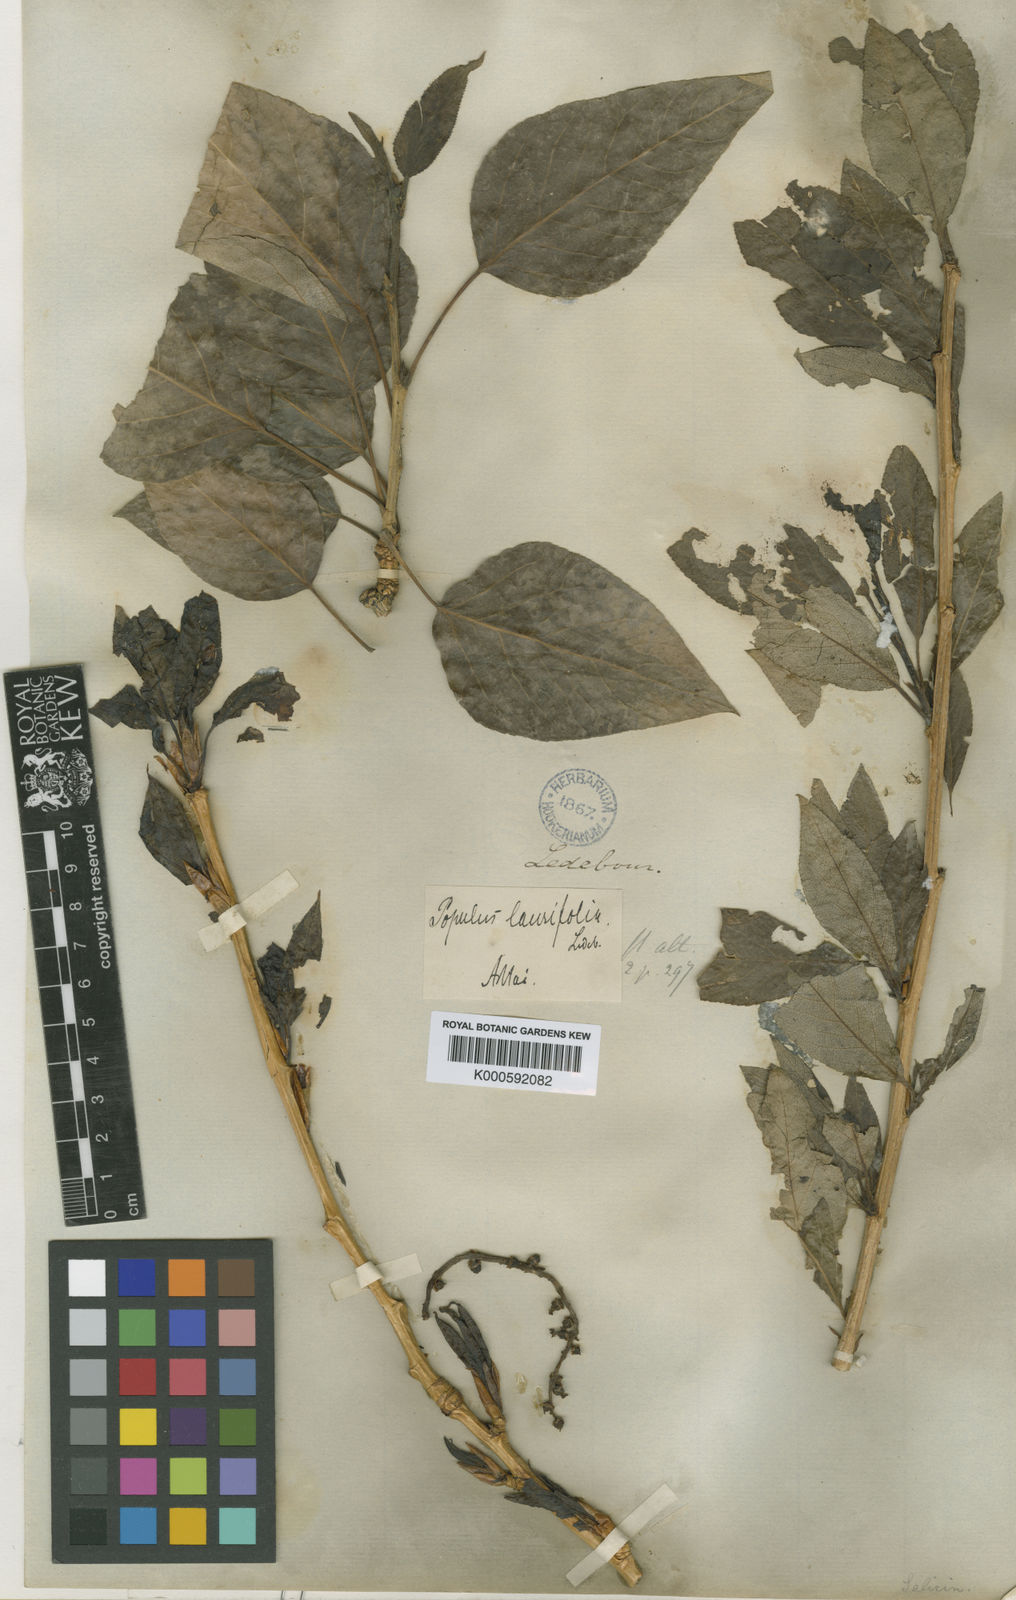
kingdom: Plantae
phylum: Tracheophyta
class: Magnoliopsida
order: Malpighiales
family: Salicaceae
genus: Populus
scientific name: Populus nigra
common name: Black poplar
